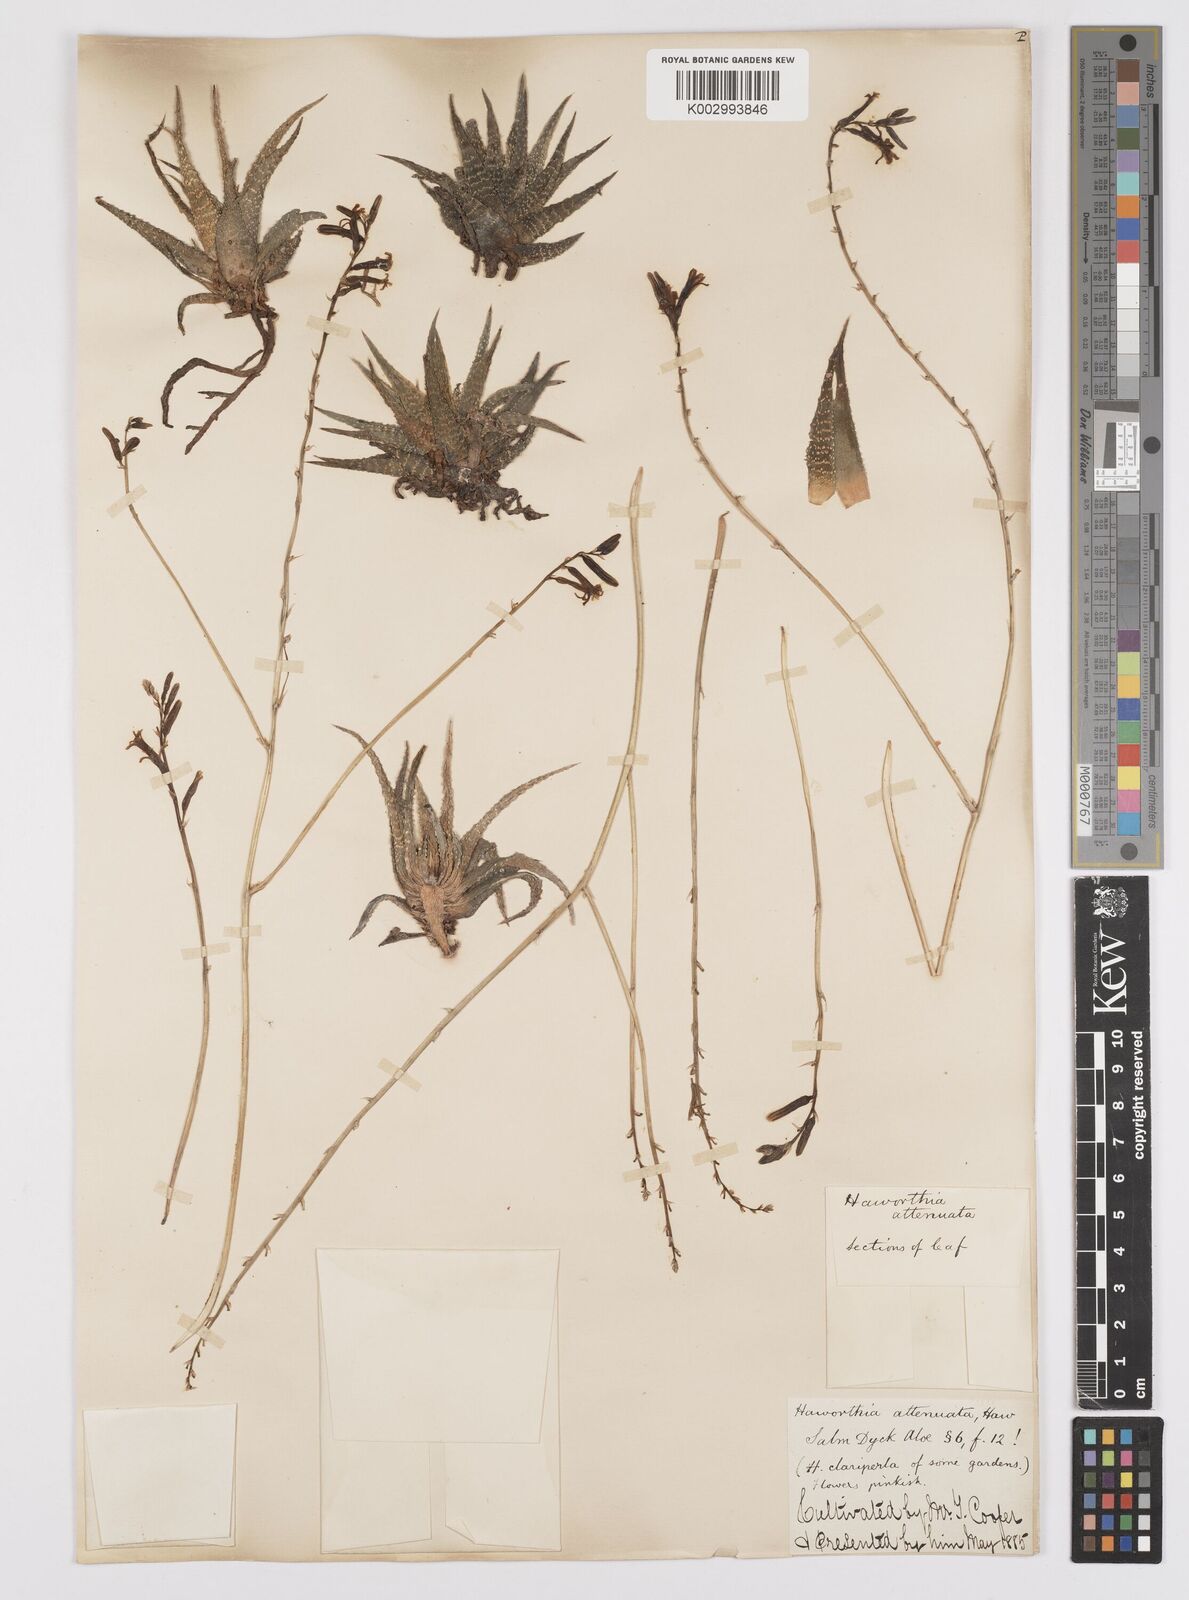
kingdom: Plantae
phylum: Tracheophyta
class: Liliopsida
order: Asparagales
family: Asphodelaceae
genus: Haworthiopsis
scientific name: Haworthiopsis attenuata
